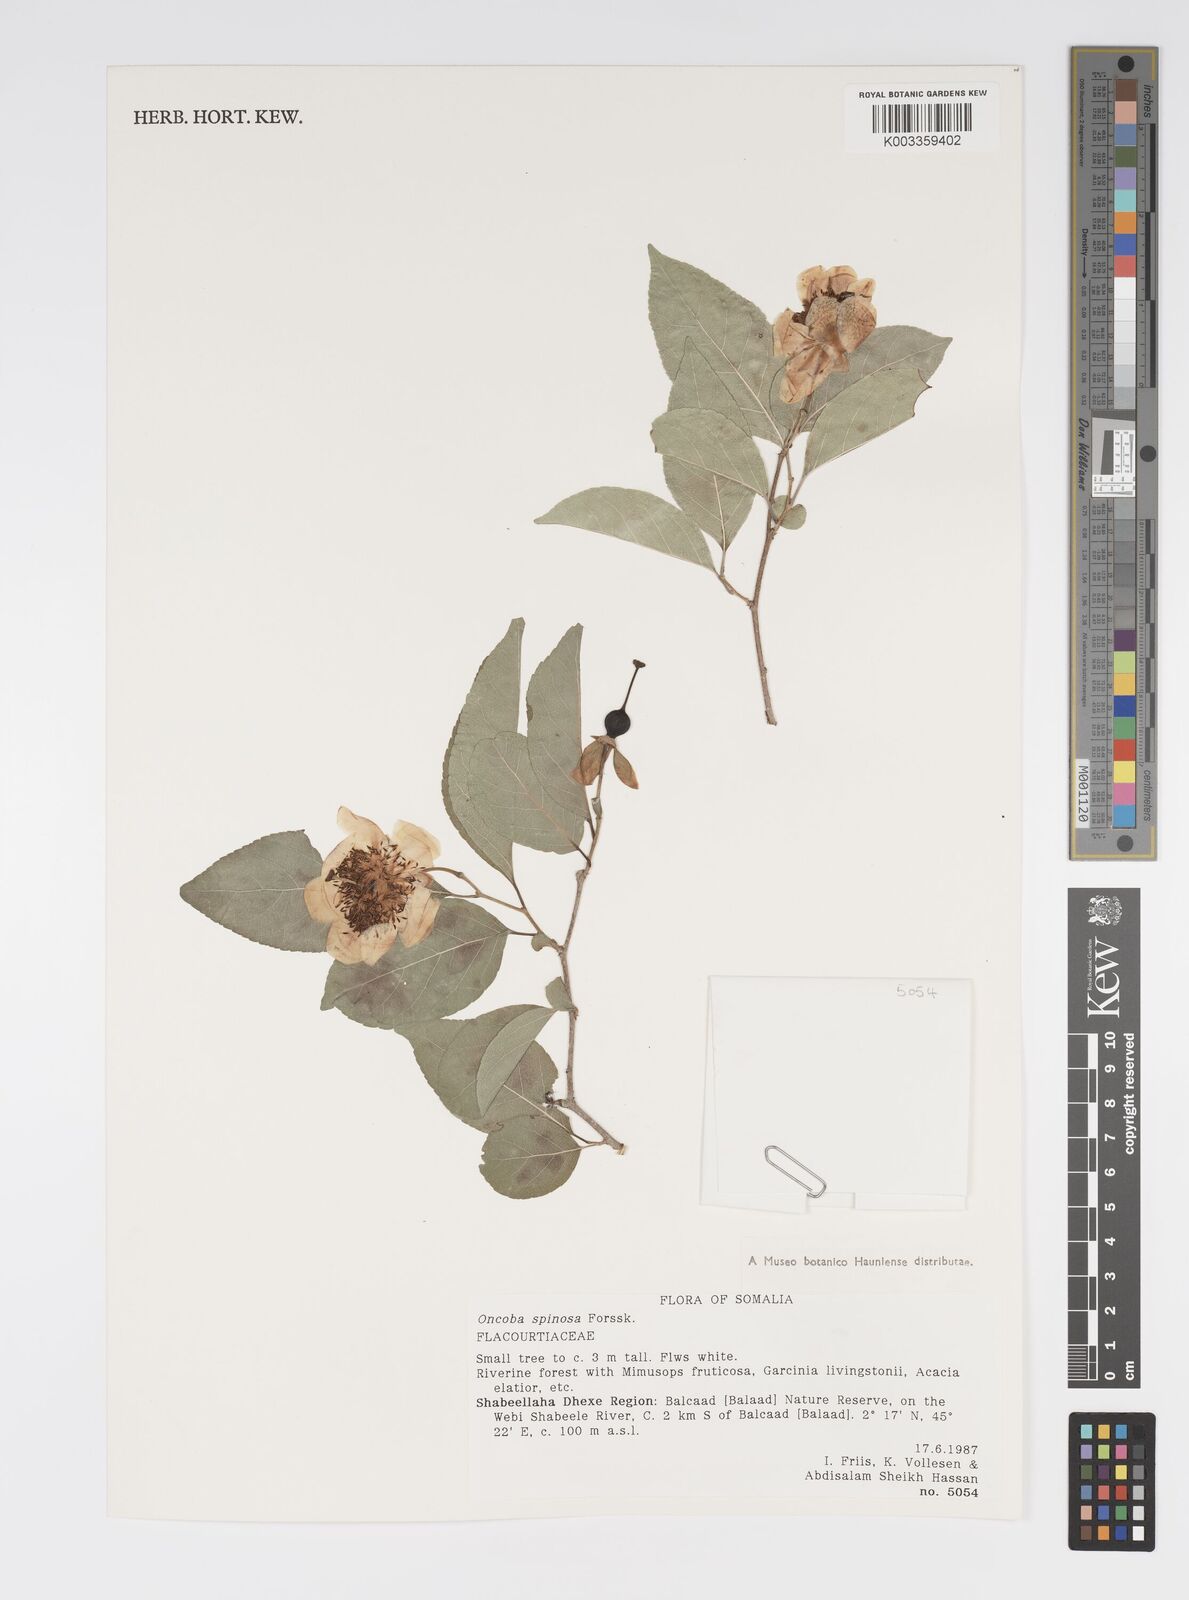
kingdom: Plantae
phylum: Tracheophyta
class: Magnoliopsida
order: Malpighiales
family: Salicaceae
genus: Oncoba
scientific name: Oncoba spinosa
